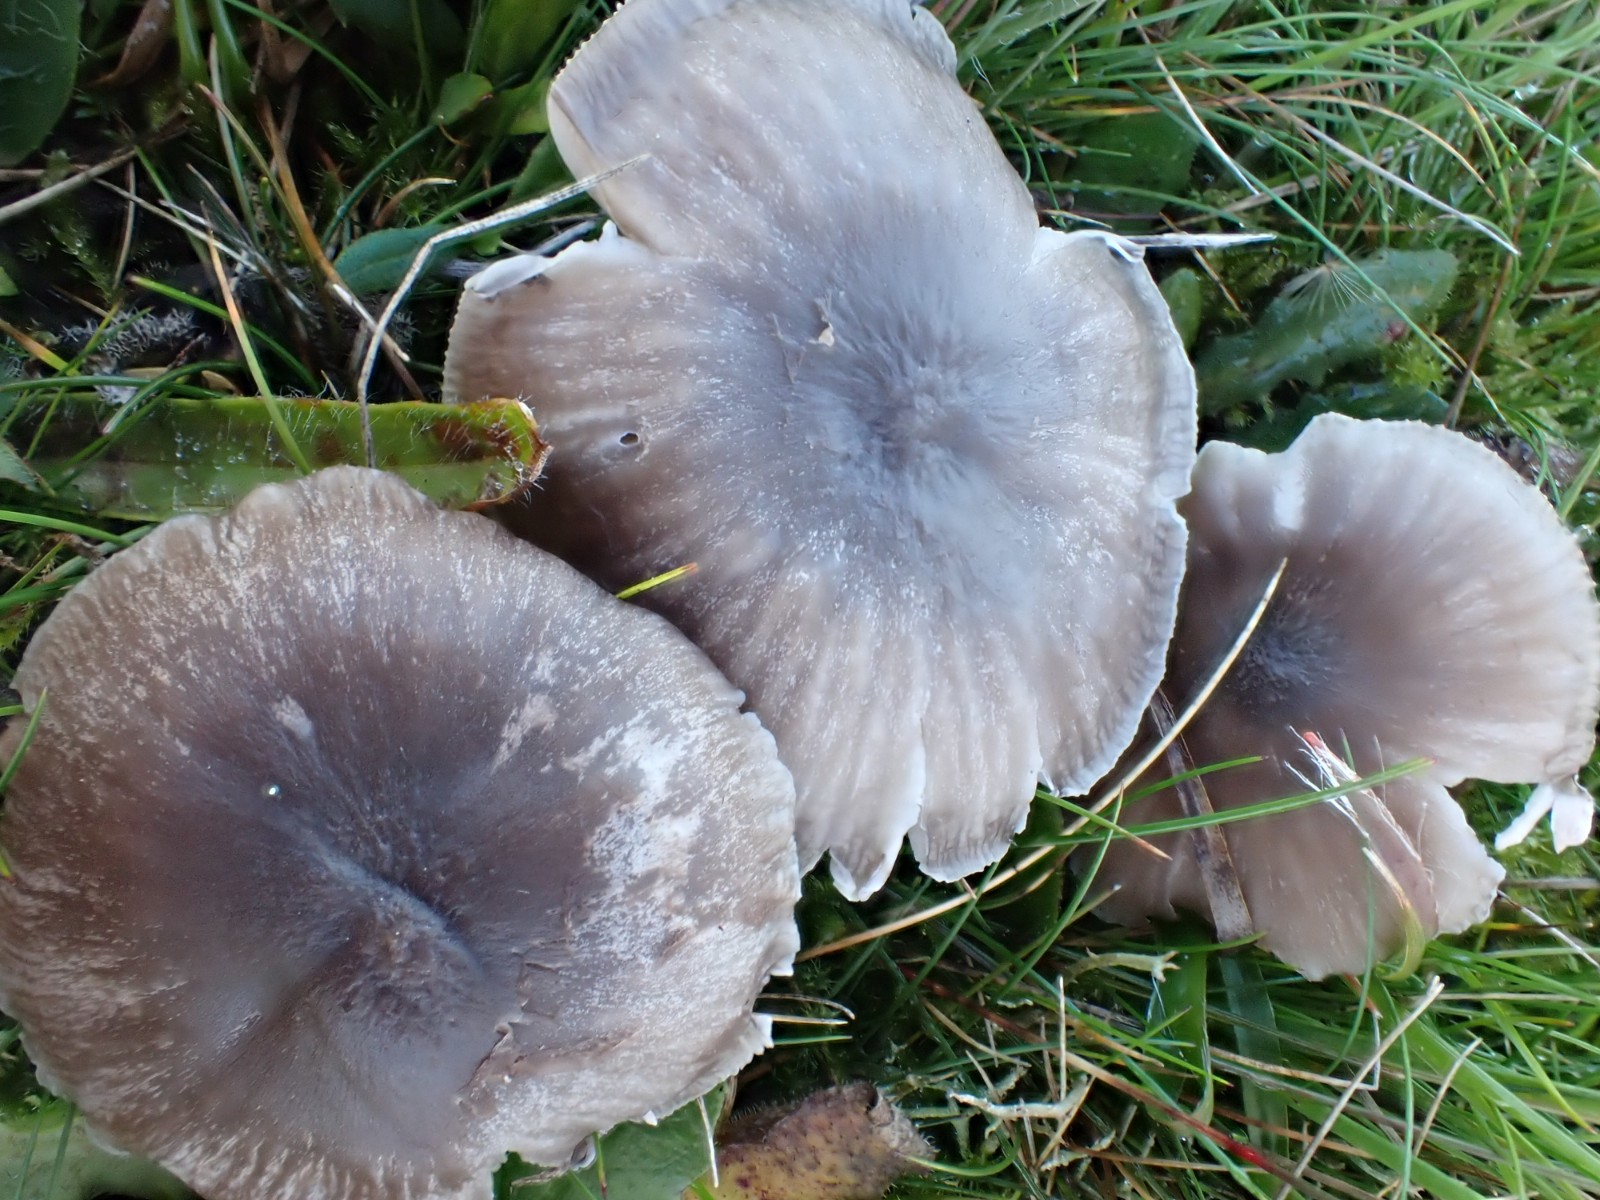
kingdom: Fungi
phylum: Basidiomycota
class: Agaricomycetes
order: Agaricales
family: Hygrophoraceae
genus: Cuphophyllus
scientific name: Cuphophyllus flavipes
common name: gulfodet vokshat
